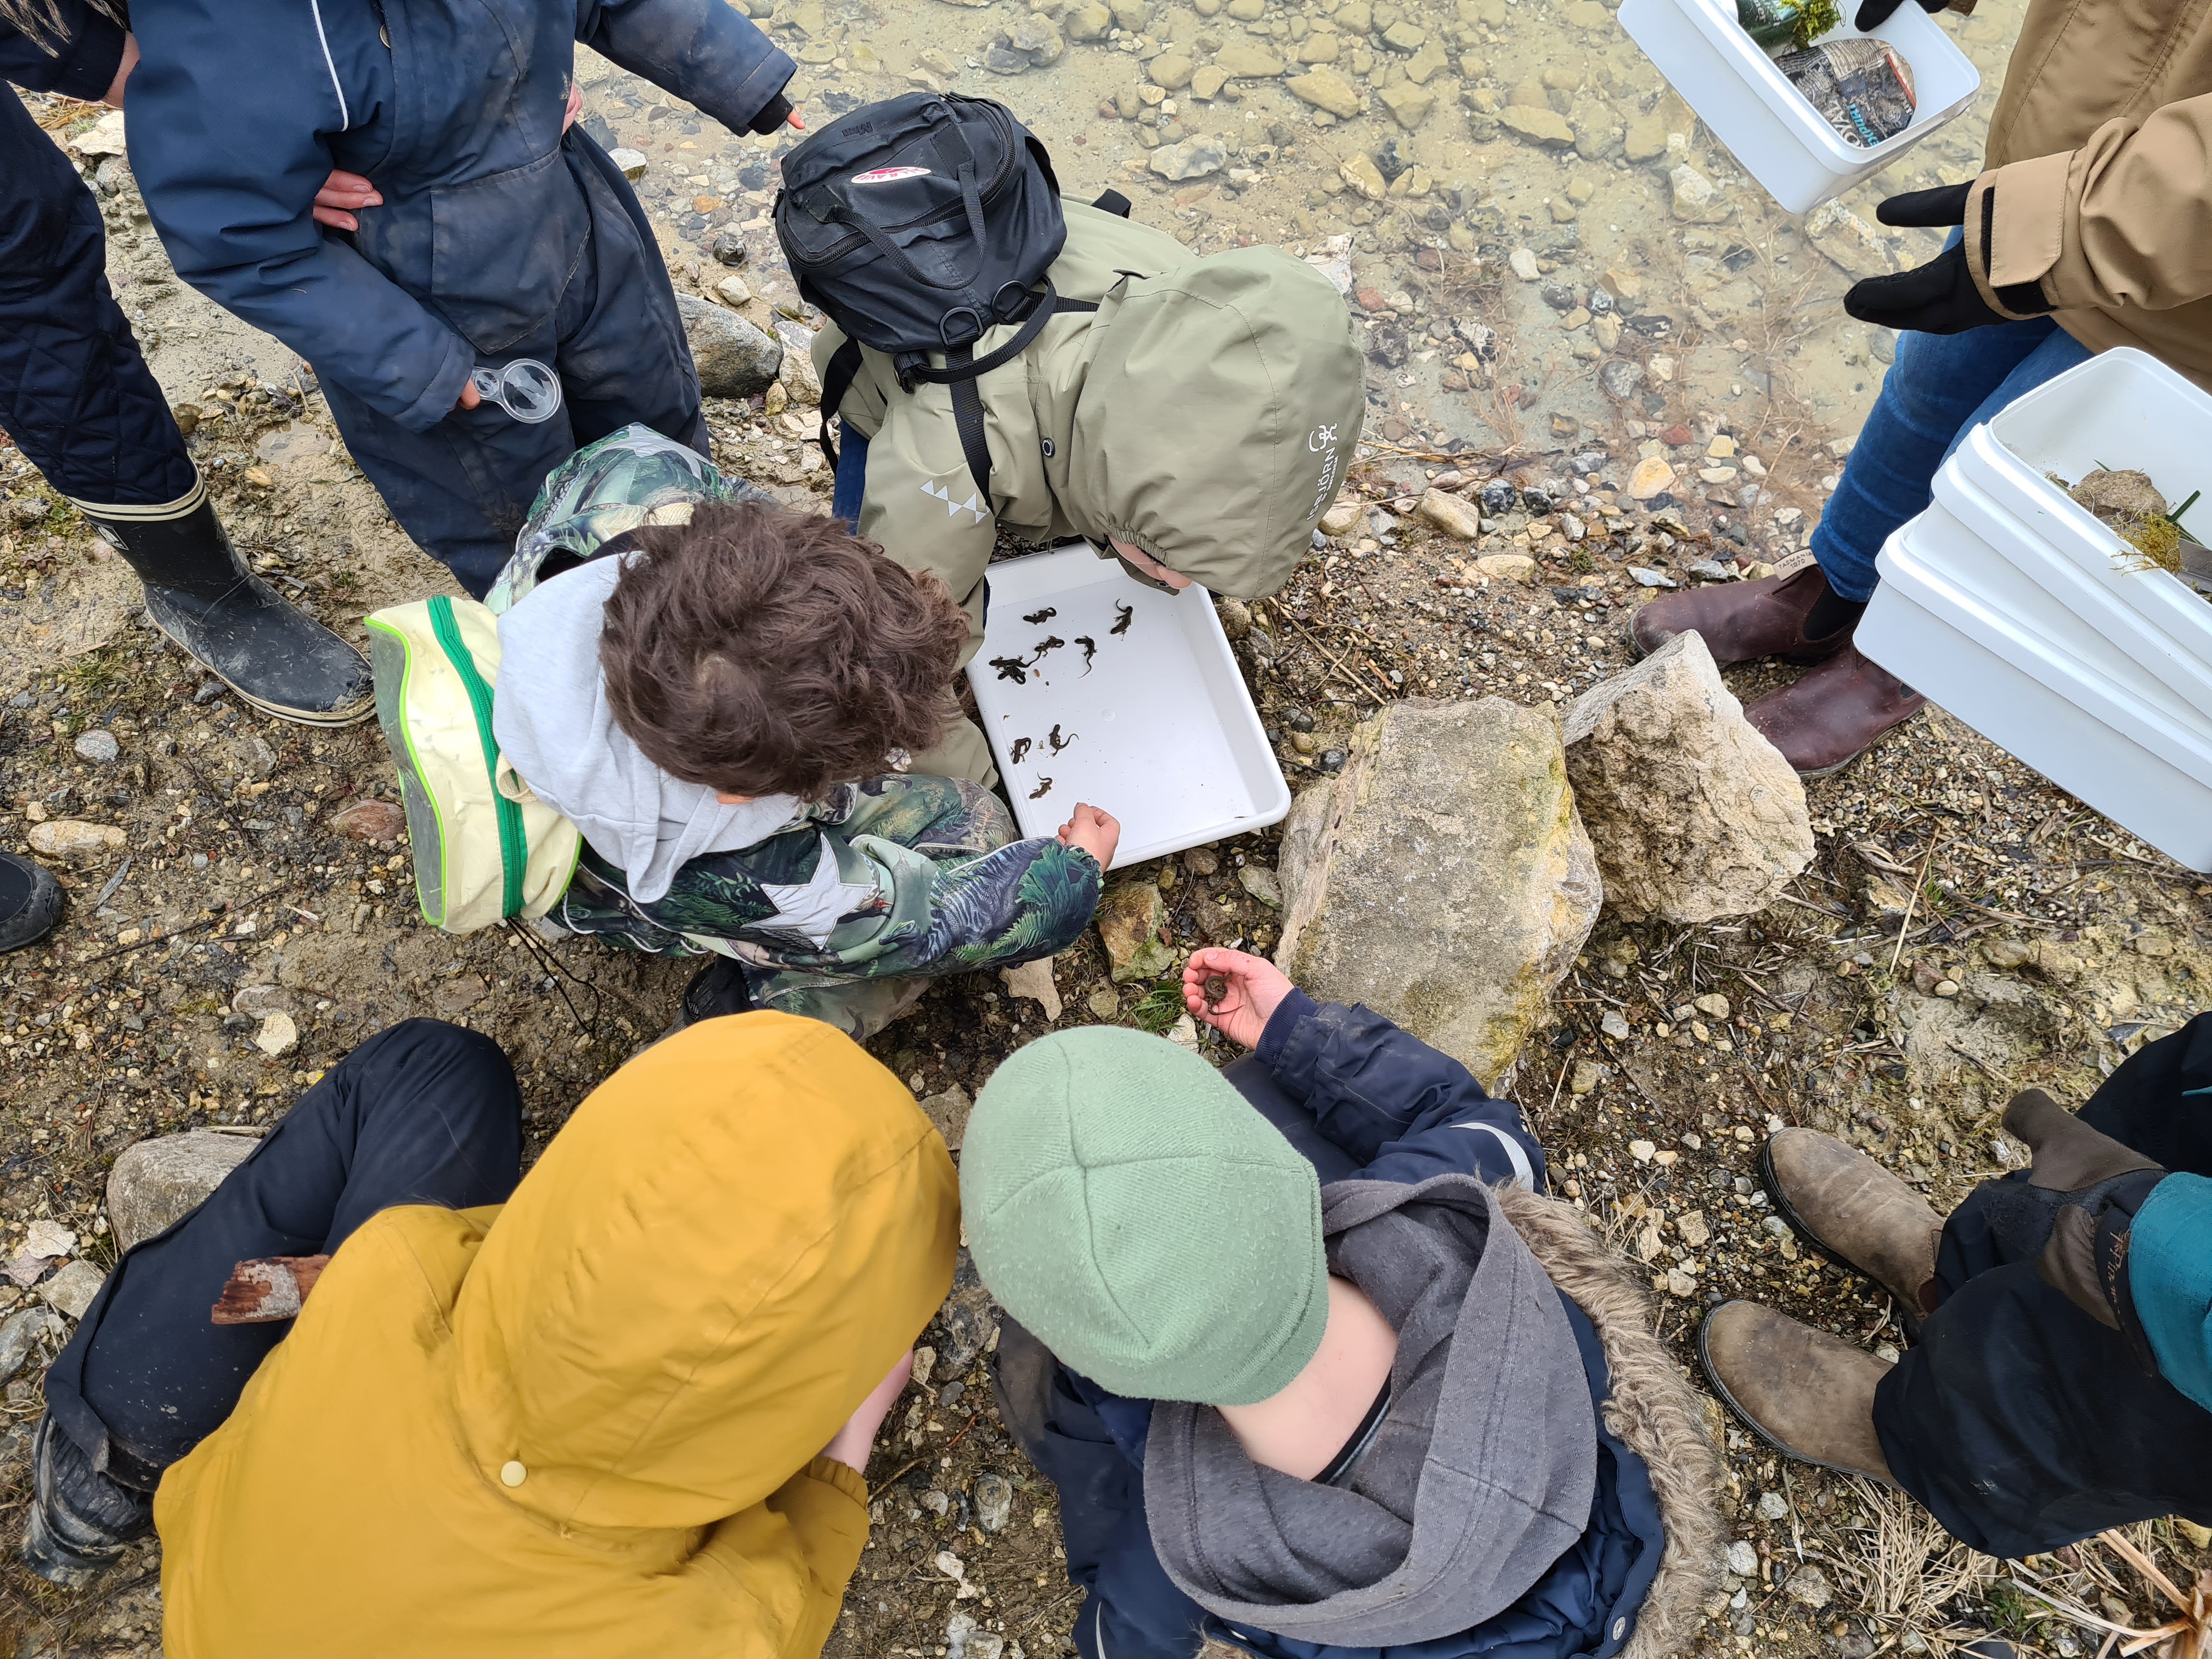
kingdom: Animalia
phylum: Chordata
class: Amphibia
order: Caudata
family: Salamandridae
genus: Lissotriton
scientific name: Lissotriton vulgaris
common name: Lille vandsalamander
